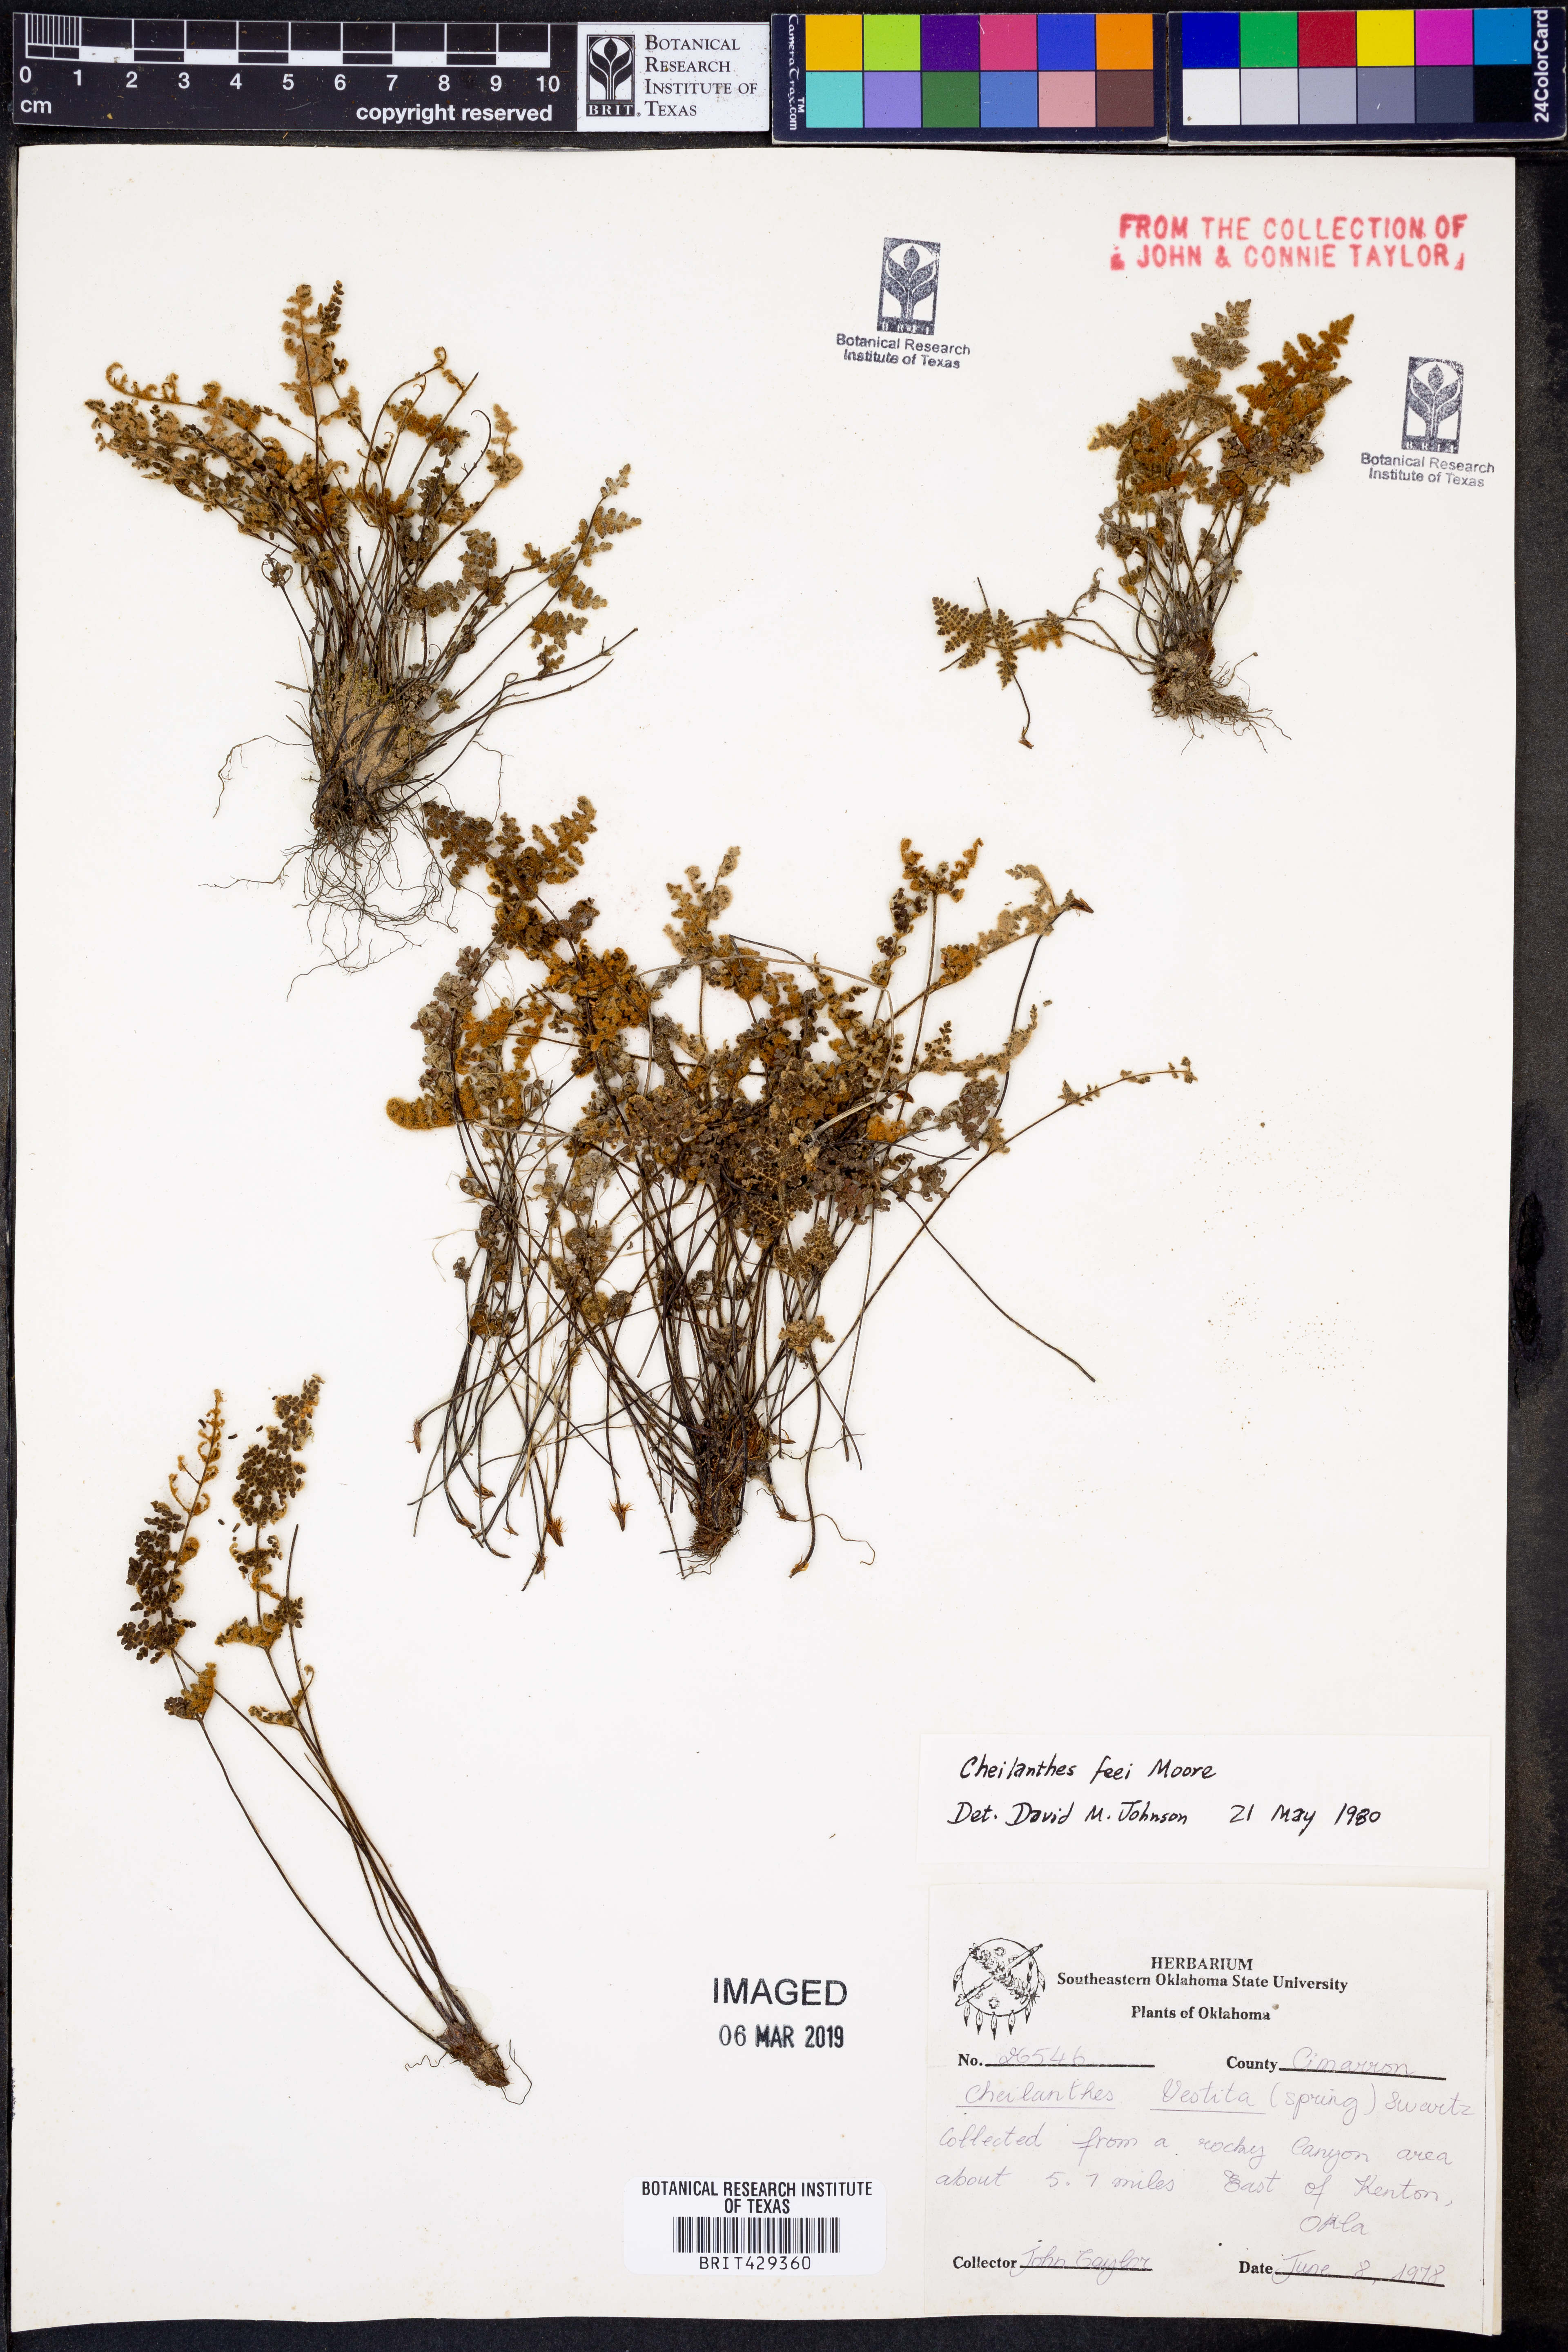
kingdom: Plantae
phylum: Tracheophyta
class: Polypodiopsida
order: Polypodiales
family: Pteridaceae
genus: Myriopteris
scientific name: Myriopteris gracilis
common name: Fee's lip fern
